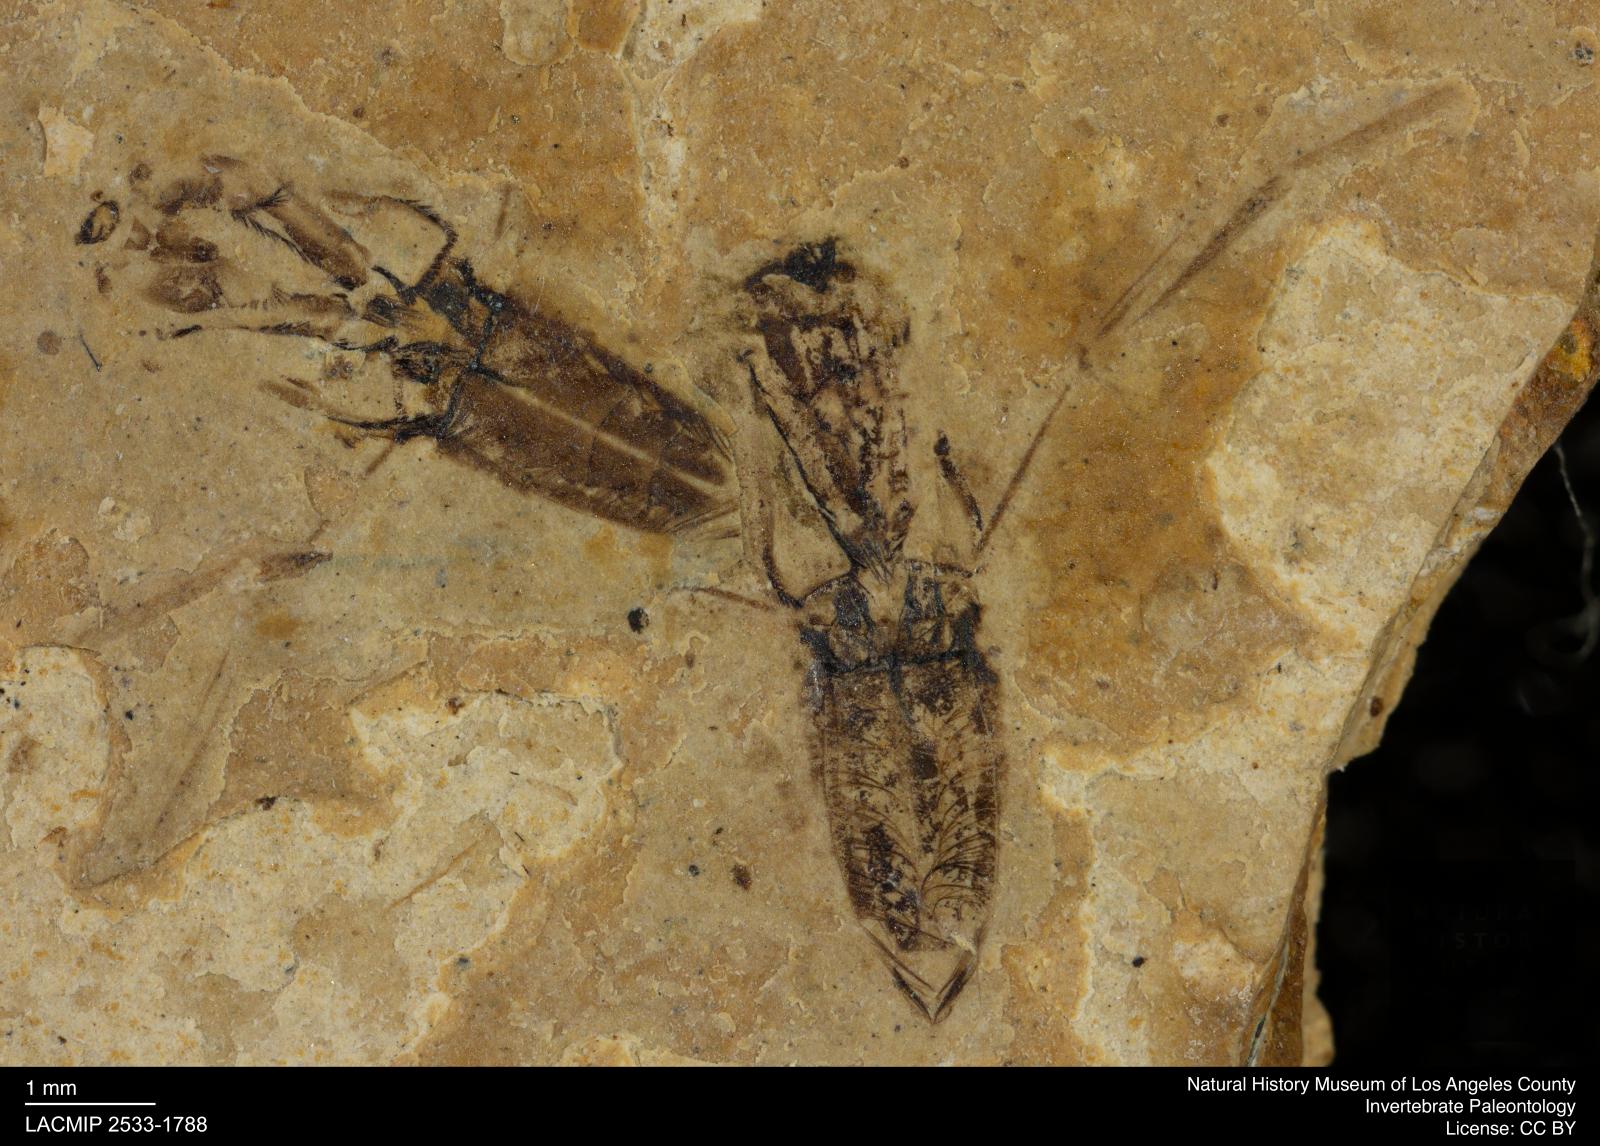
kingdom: Animalia
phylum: Arthropoda
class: Insecta
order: Hemiptera
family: Notonectidae
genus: Notonecta
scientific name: Notonecta
